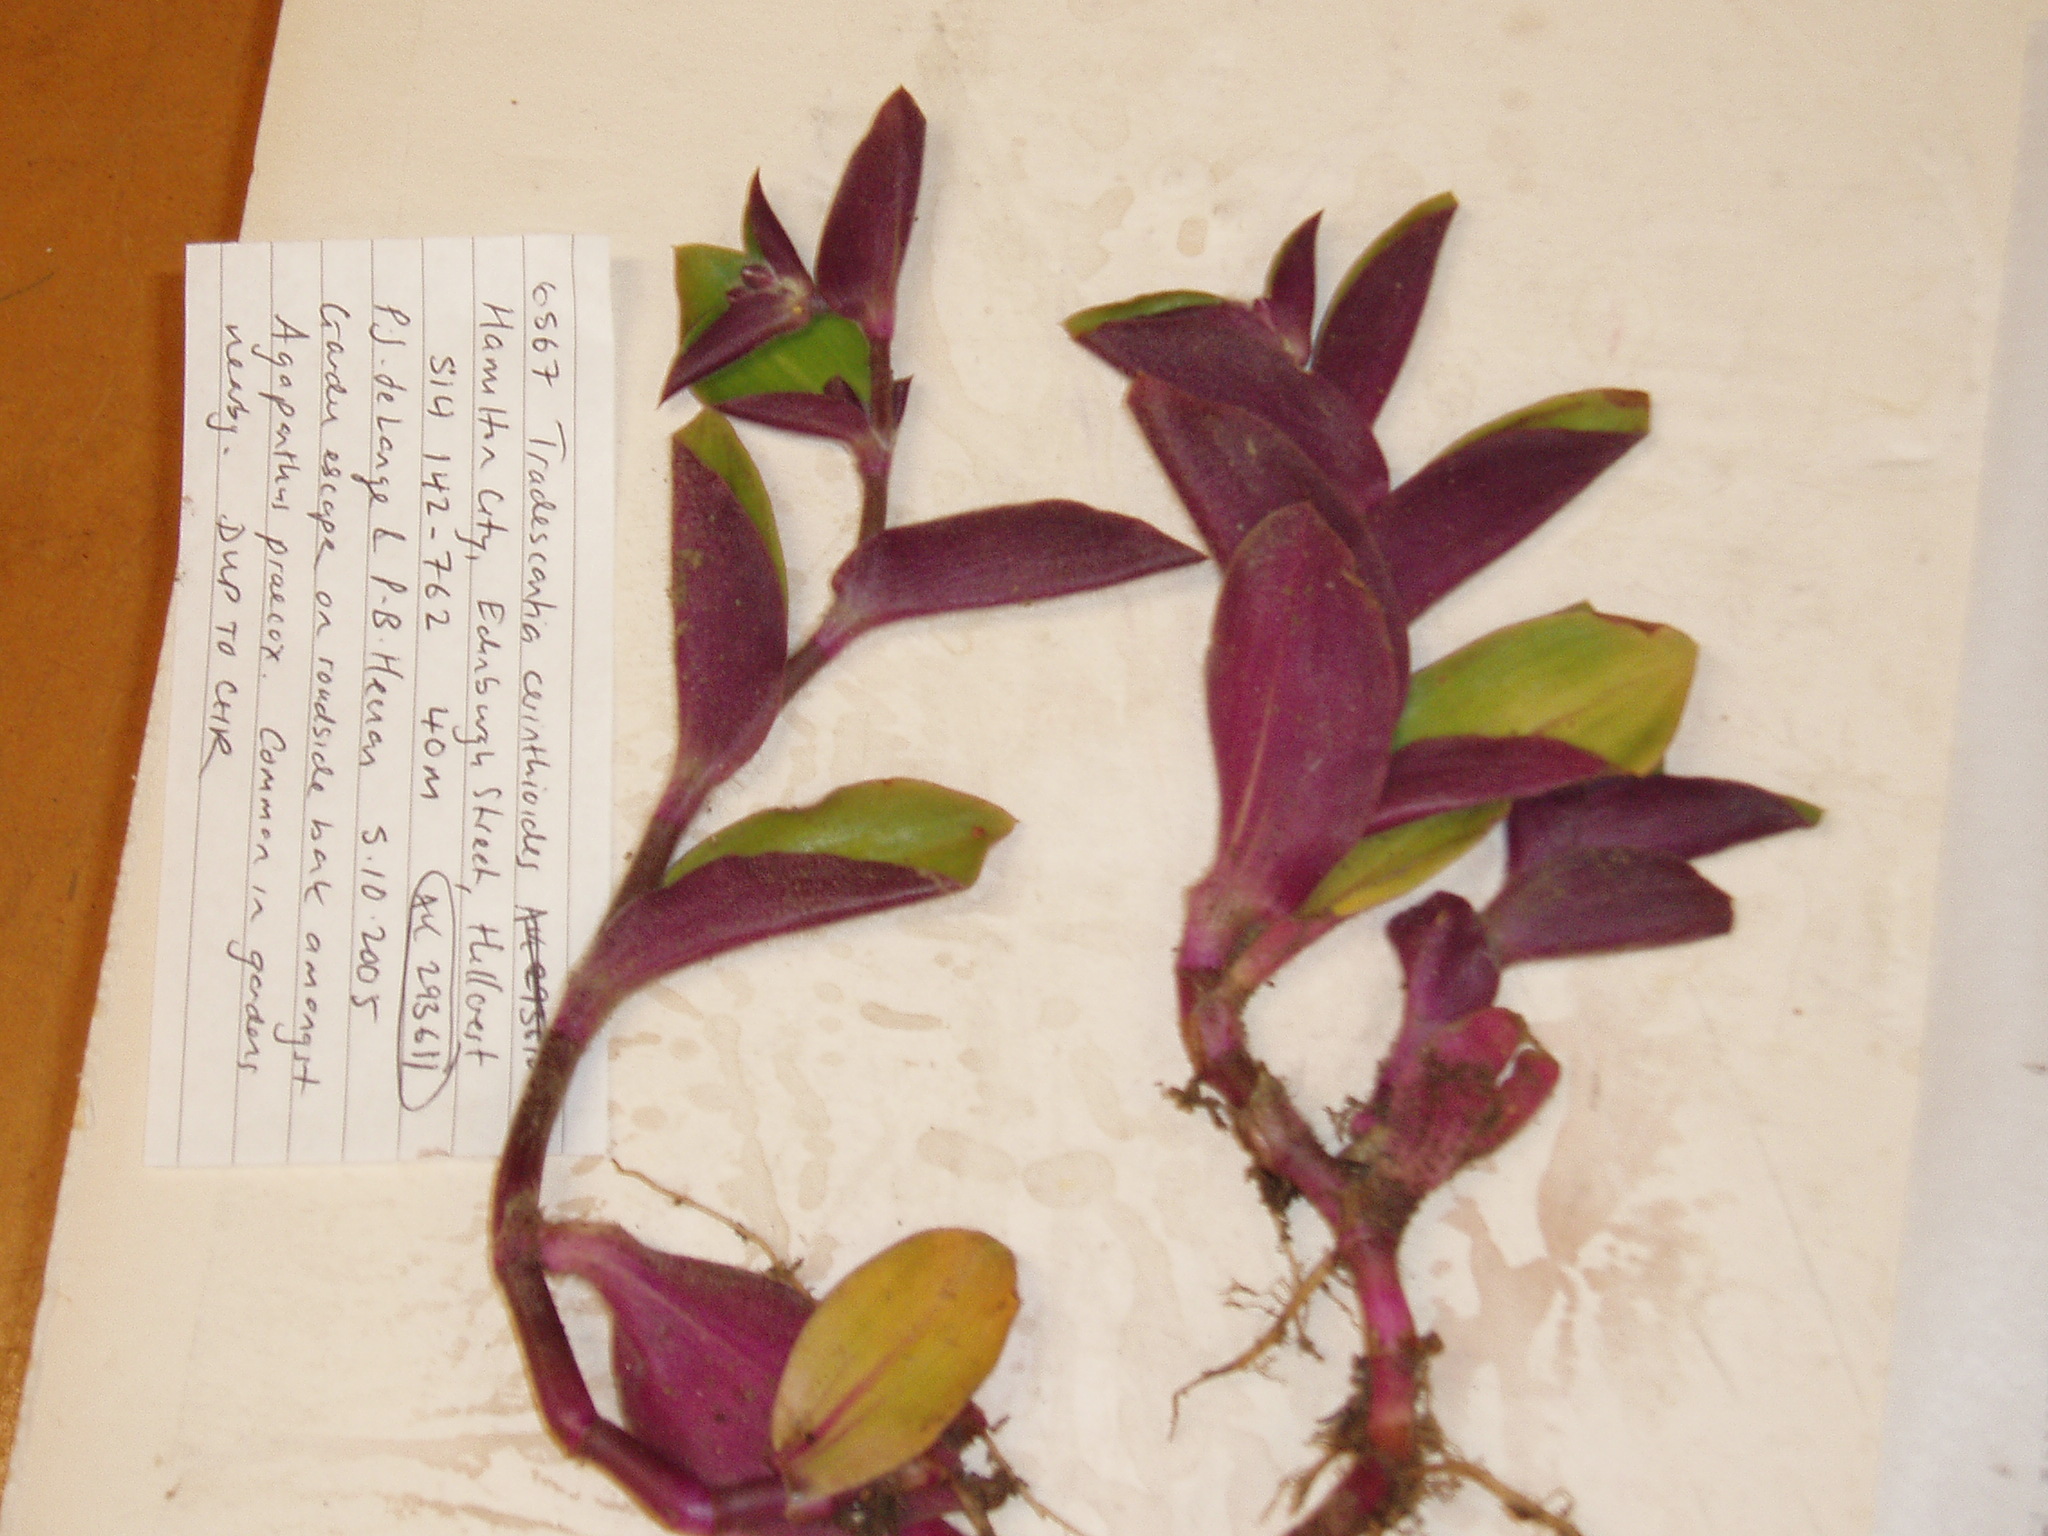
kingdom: Plantae
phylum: Tracheophyta
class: Liliopsida
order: Commelinales
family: Commelinaceae
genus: Tradescantia
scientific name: Tradescantia cerinthoides
